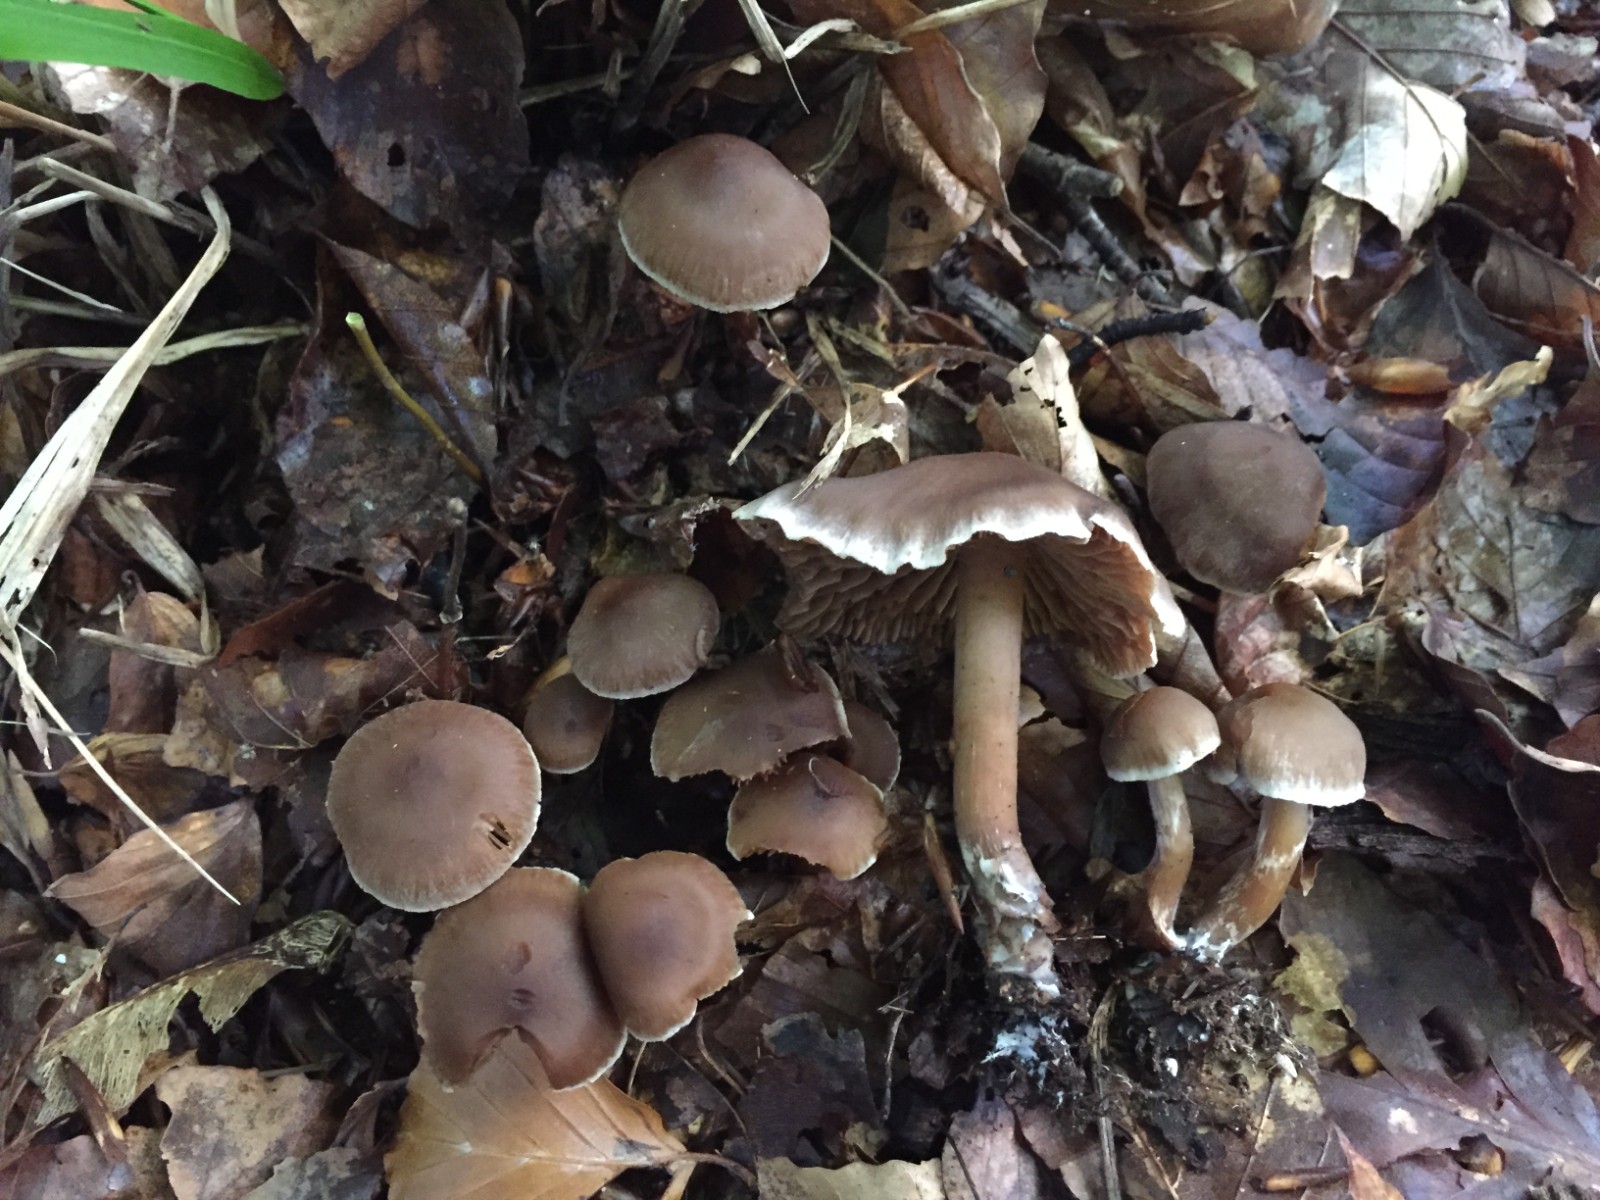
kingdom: Fungi
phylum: Basidiomycota
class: Agaricomycetes
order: Agaricales
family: Cortinariaceae
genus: Cortinarius
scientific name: Cortinarius elaphinicolor
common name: glat slørhat
